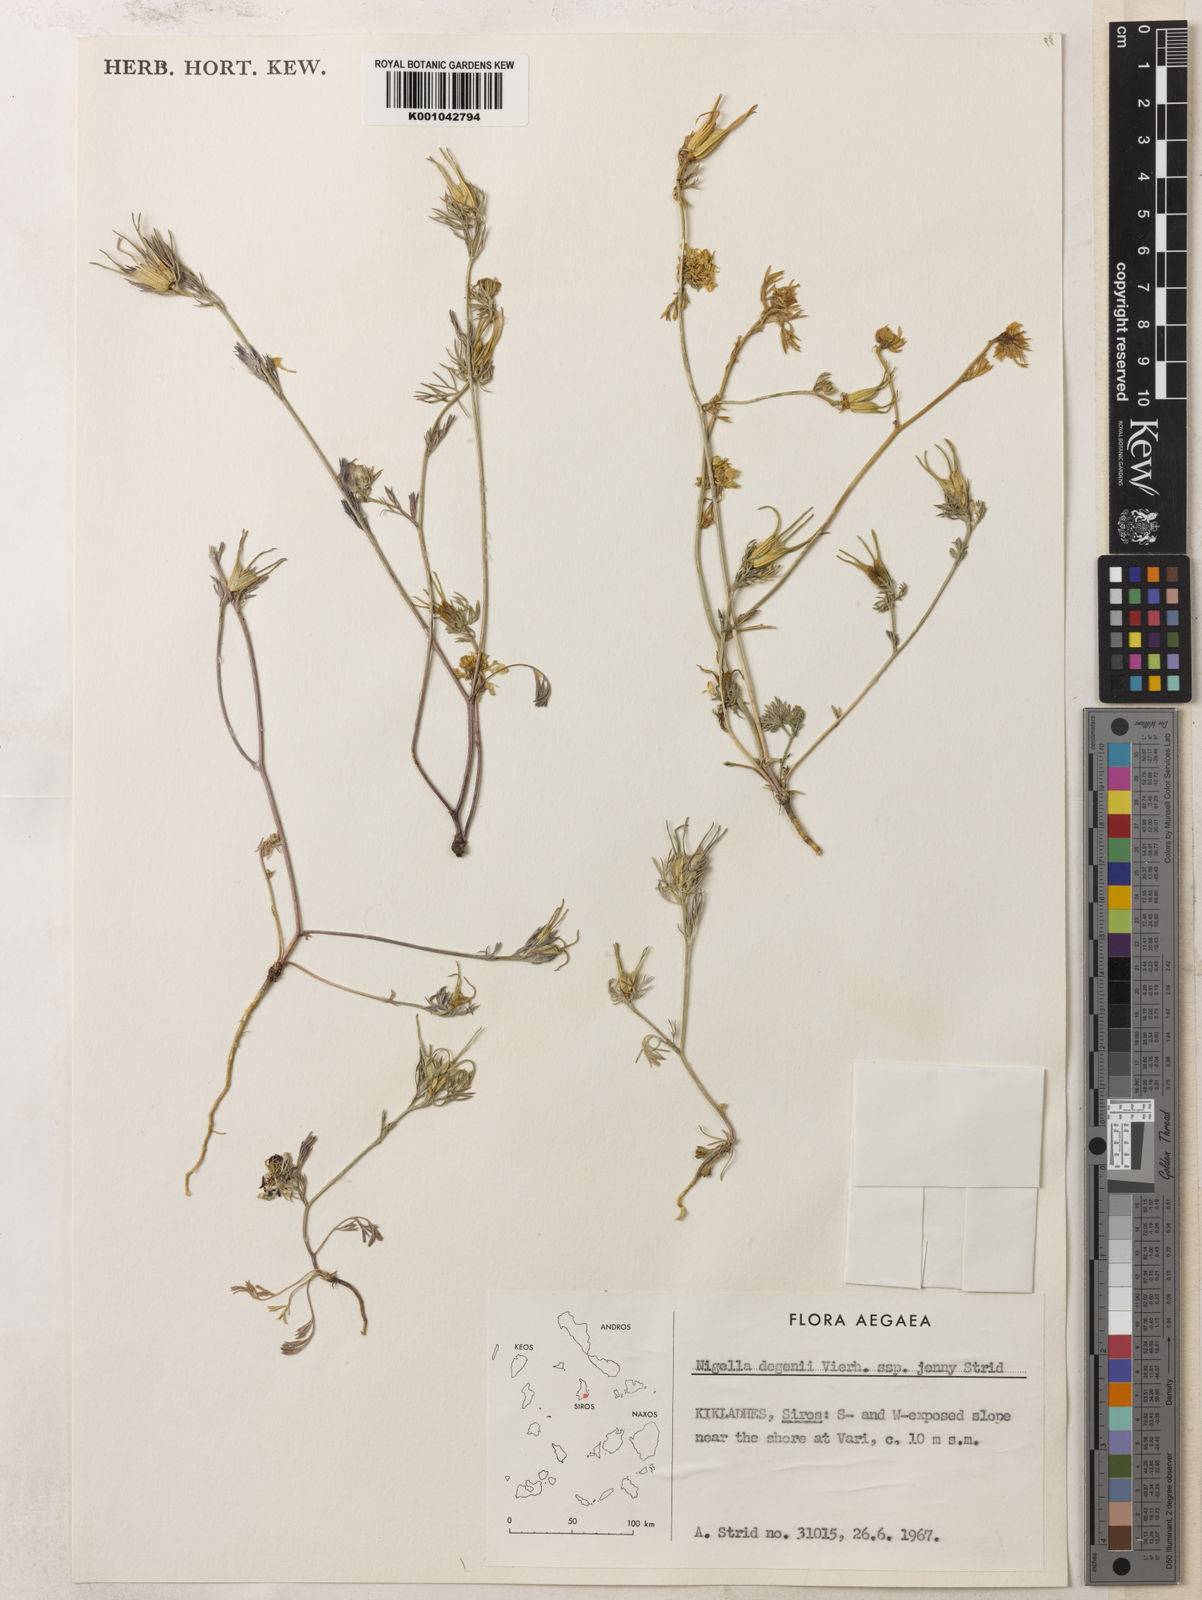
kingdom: Plantae
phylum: Tracheophyta
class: Magnoliopsida
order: Ranunculales
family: Ranunculaceae
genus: Nigella
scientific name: Nigella degenii
